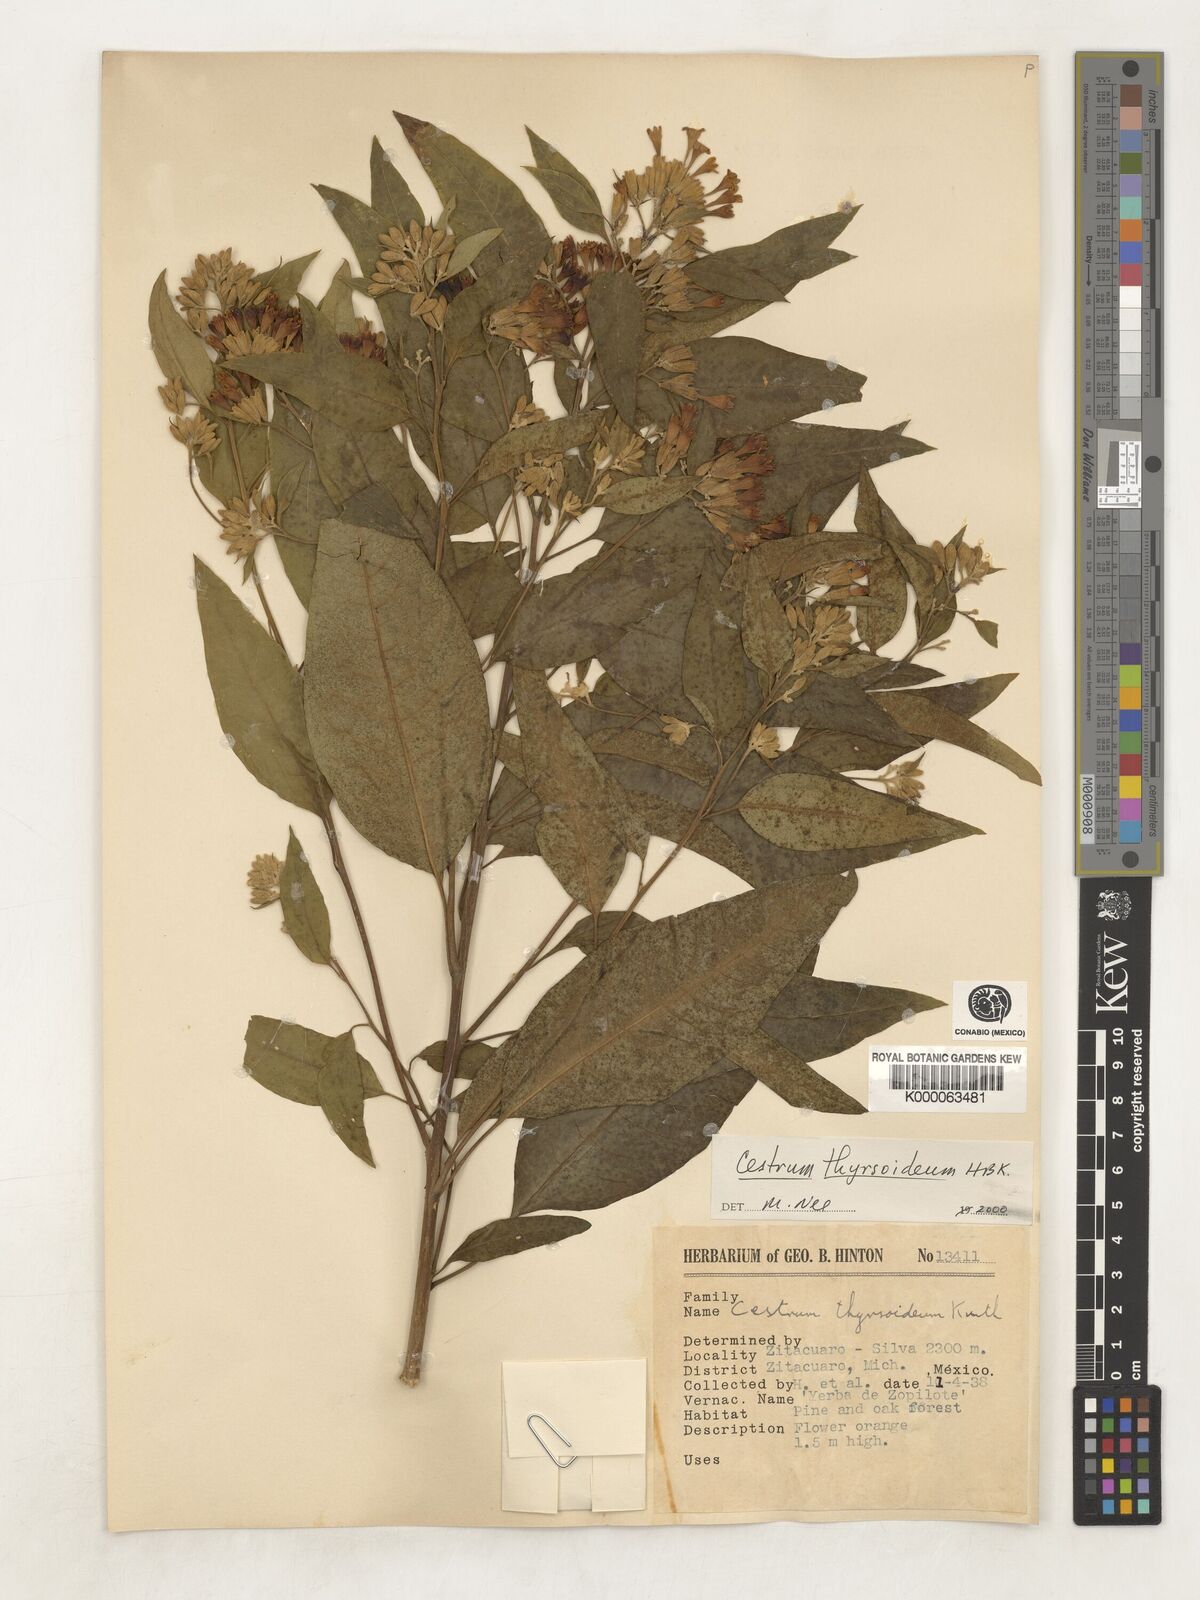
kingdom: Plantae
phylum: Tracheophyta
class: Magnoliopsida
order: Solanales
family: Solanaceae
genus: Cestrum
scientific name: Cestrum
